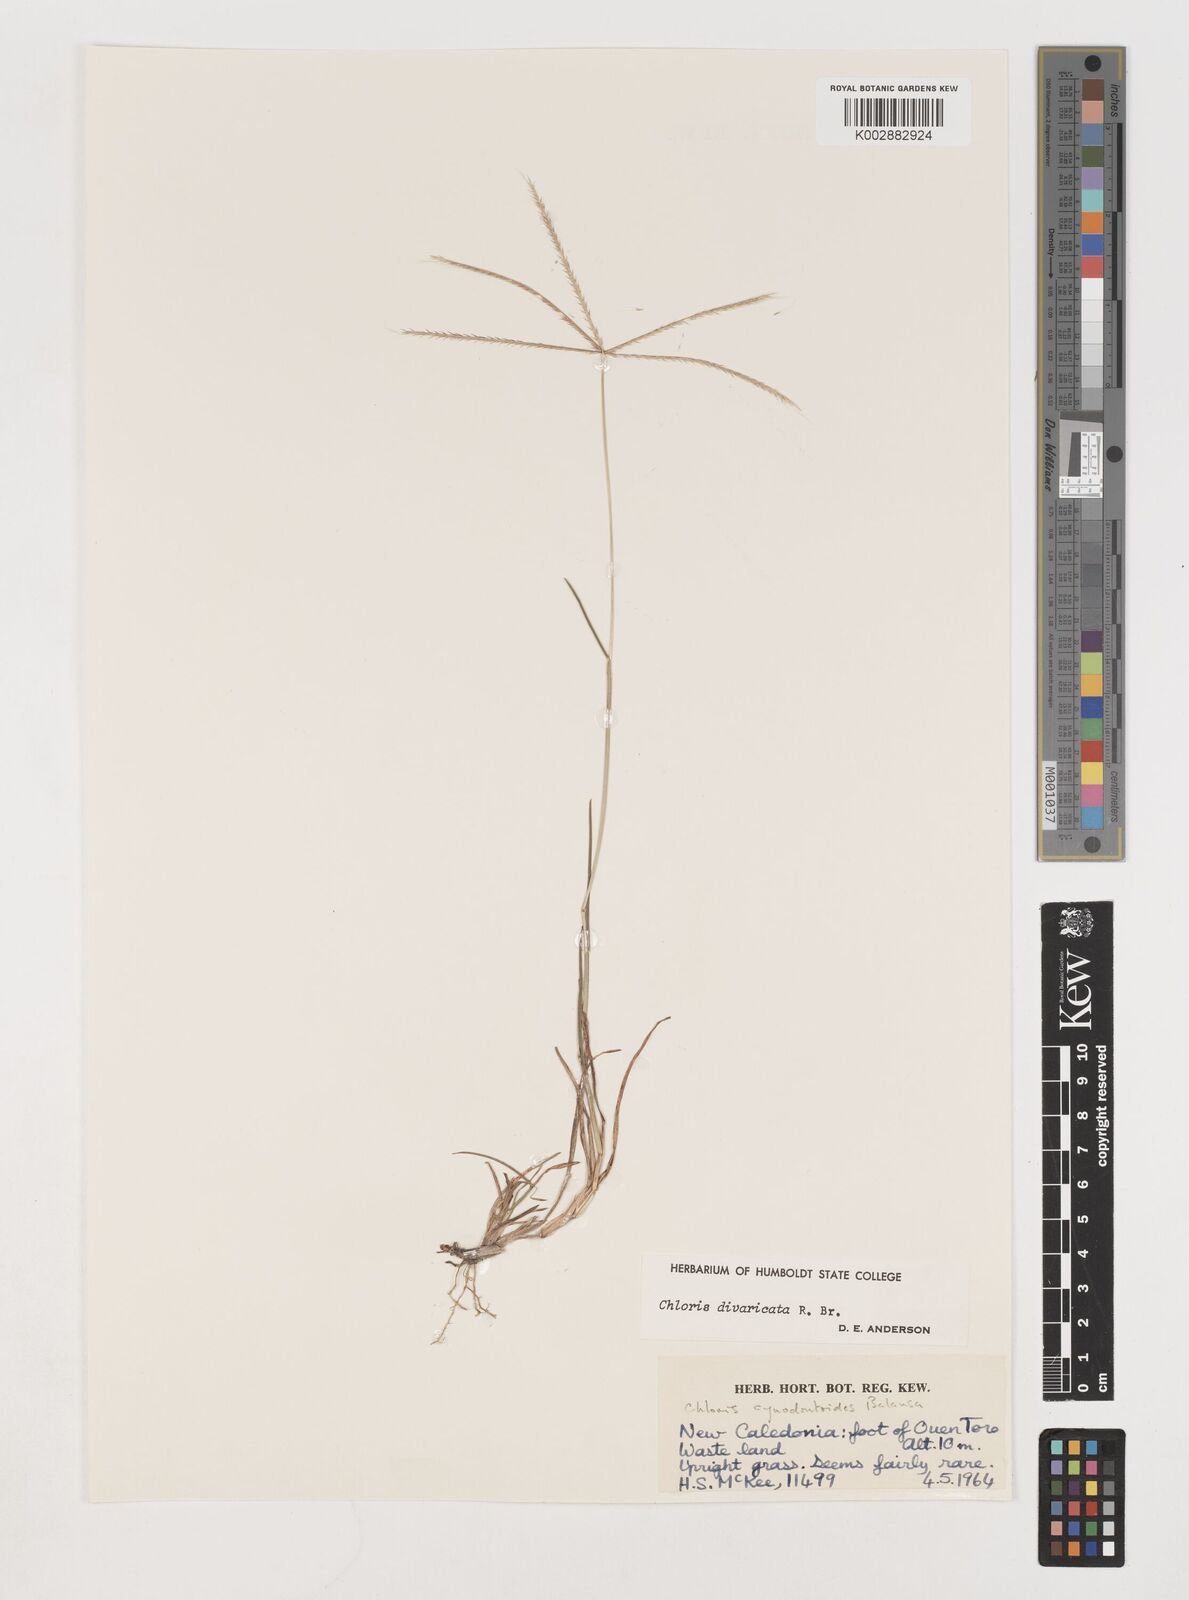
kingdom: Plantae
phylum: Tracheophyta
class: Liliopsida
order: Poales
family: Poaceae
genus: Chloris
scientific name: Chloris divaricata
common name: Spreading windmill grass
